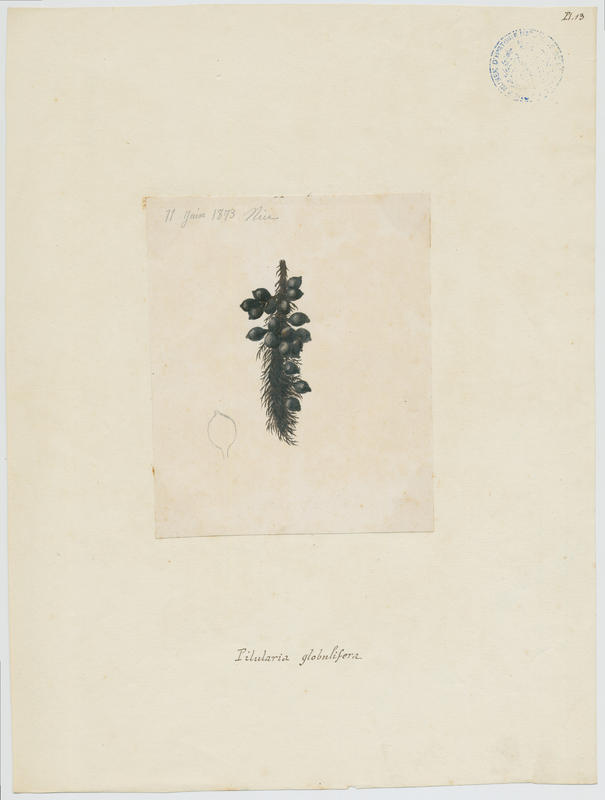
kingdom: Plantae
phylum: Tracheophyta
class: Polypodiopsida
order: Salviniales
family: Marsileaceae
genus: Pilularia
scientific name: Pilularia globulifera
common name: Pillwort
